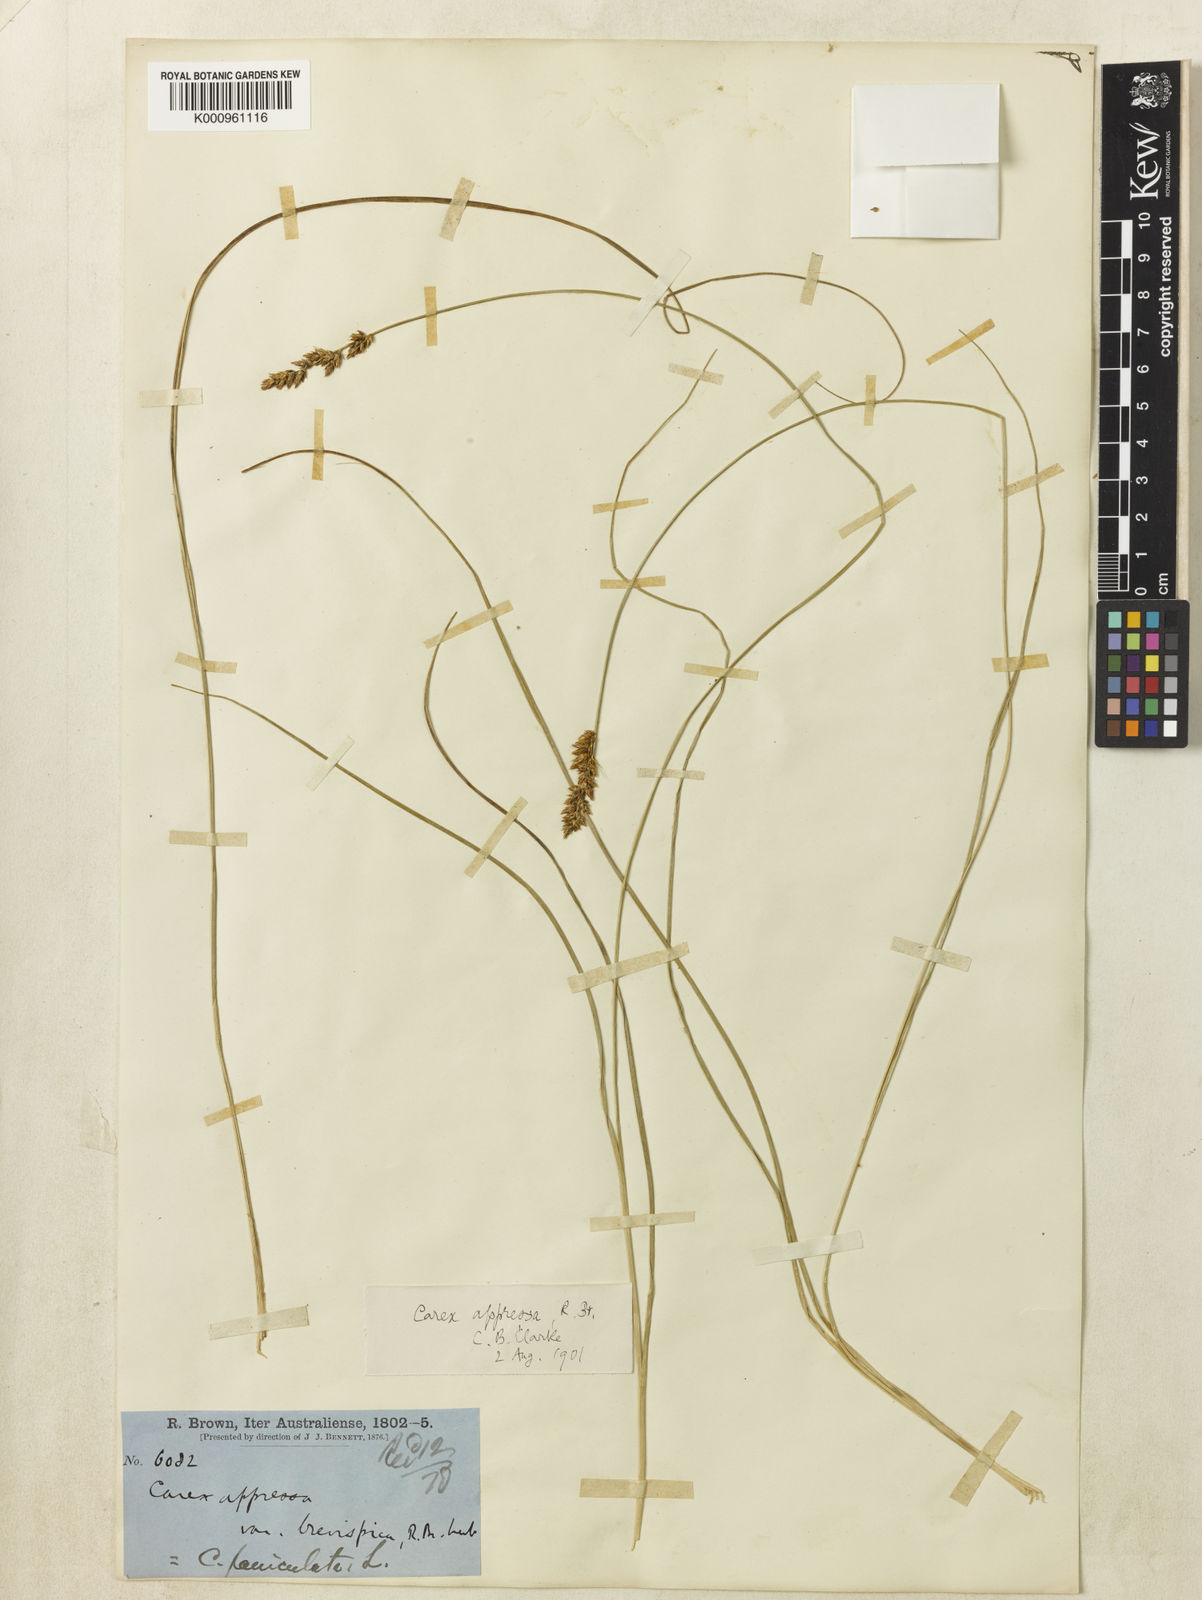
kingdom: Plantae
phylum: Tracheophyta
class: Liliopsida
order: Poales
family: Cyperaceae
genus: Carex
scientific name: Carex appressa
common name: Tussock sedge
